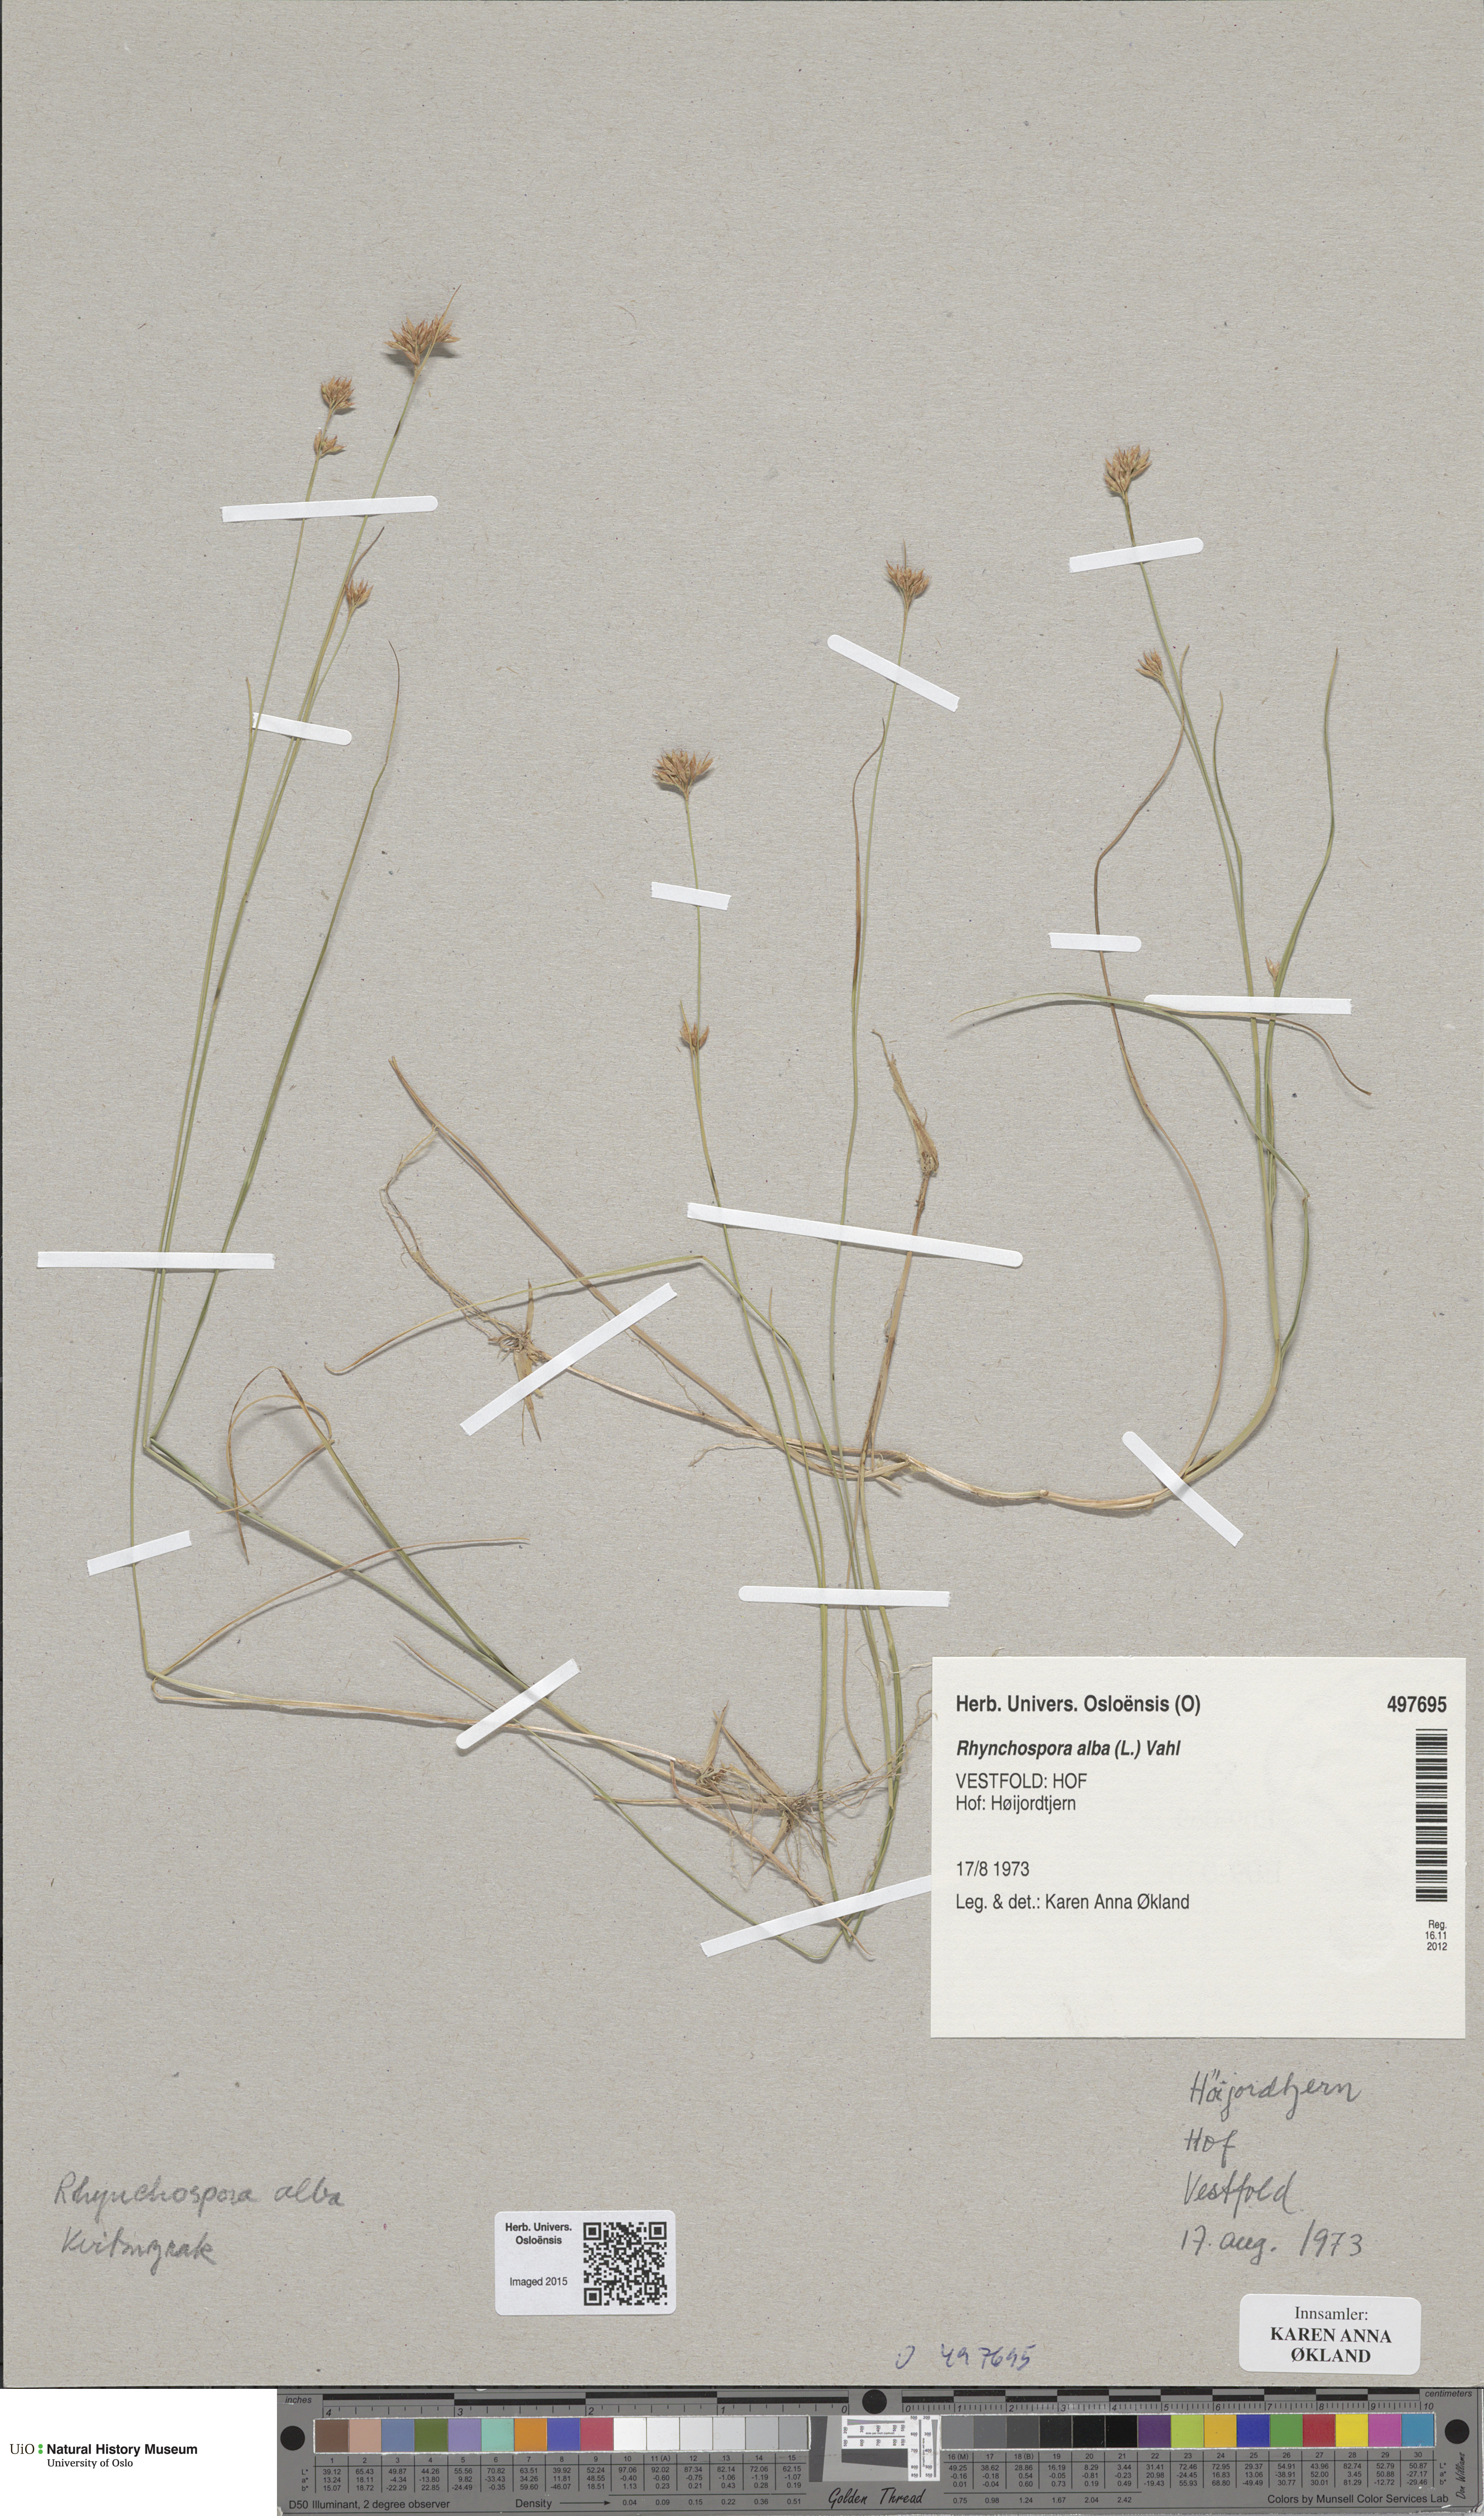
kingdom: Plantae
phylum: Tracheophyta
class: Liliopsida
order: Poales
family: Cyperaceae
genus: Rhynchospora
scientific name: Rhynchospora alba
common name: White beak-sedge
